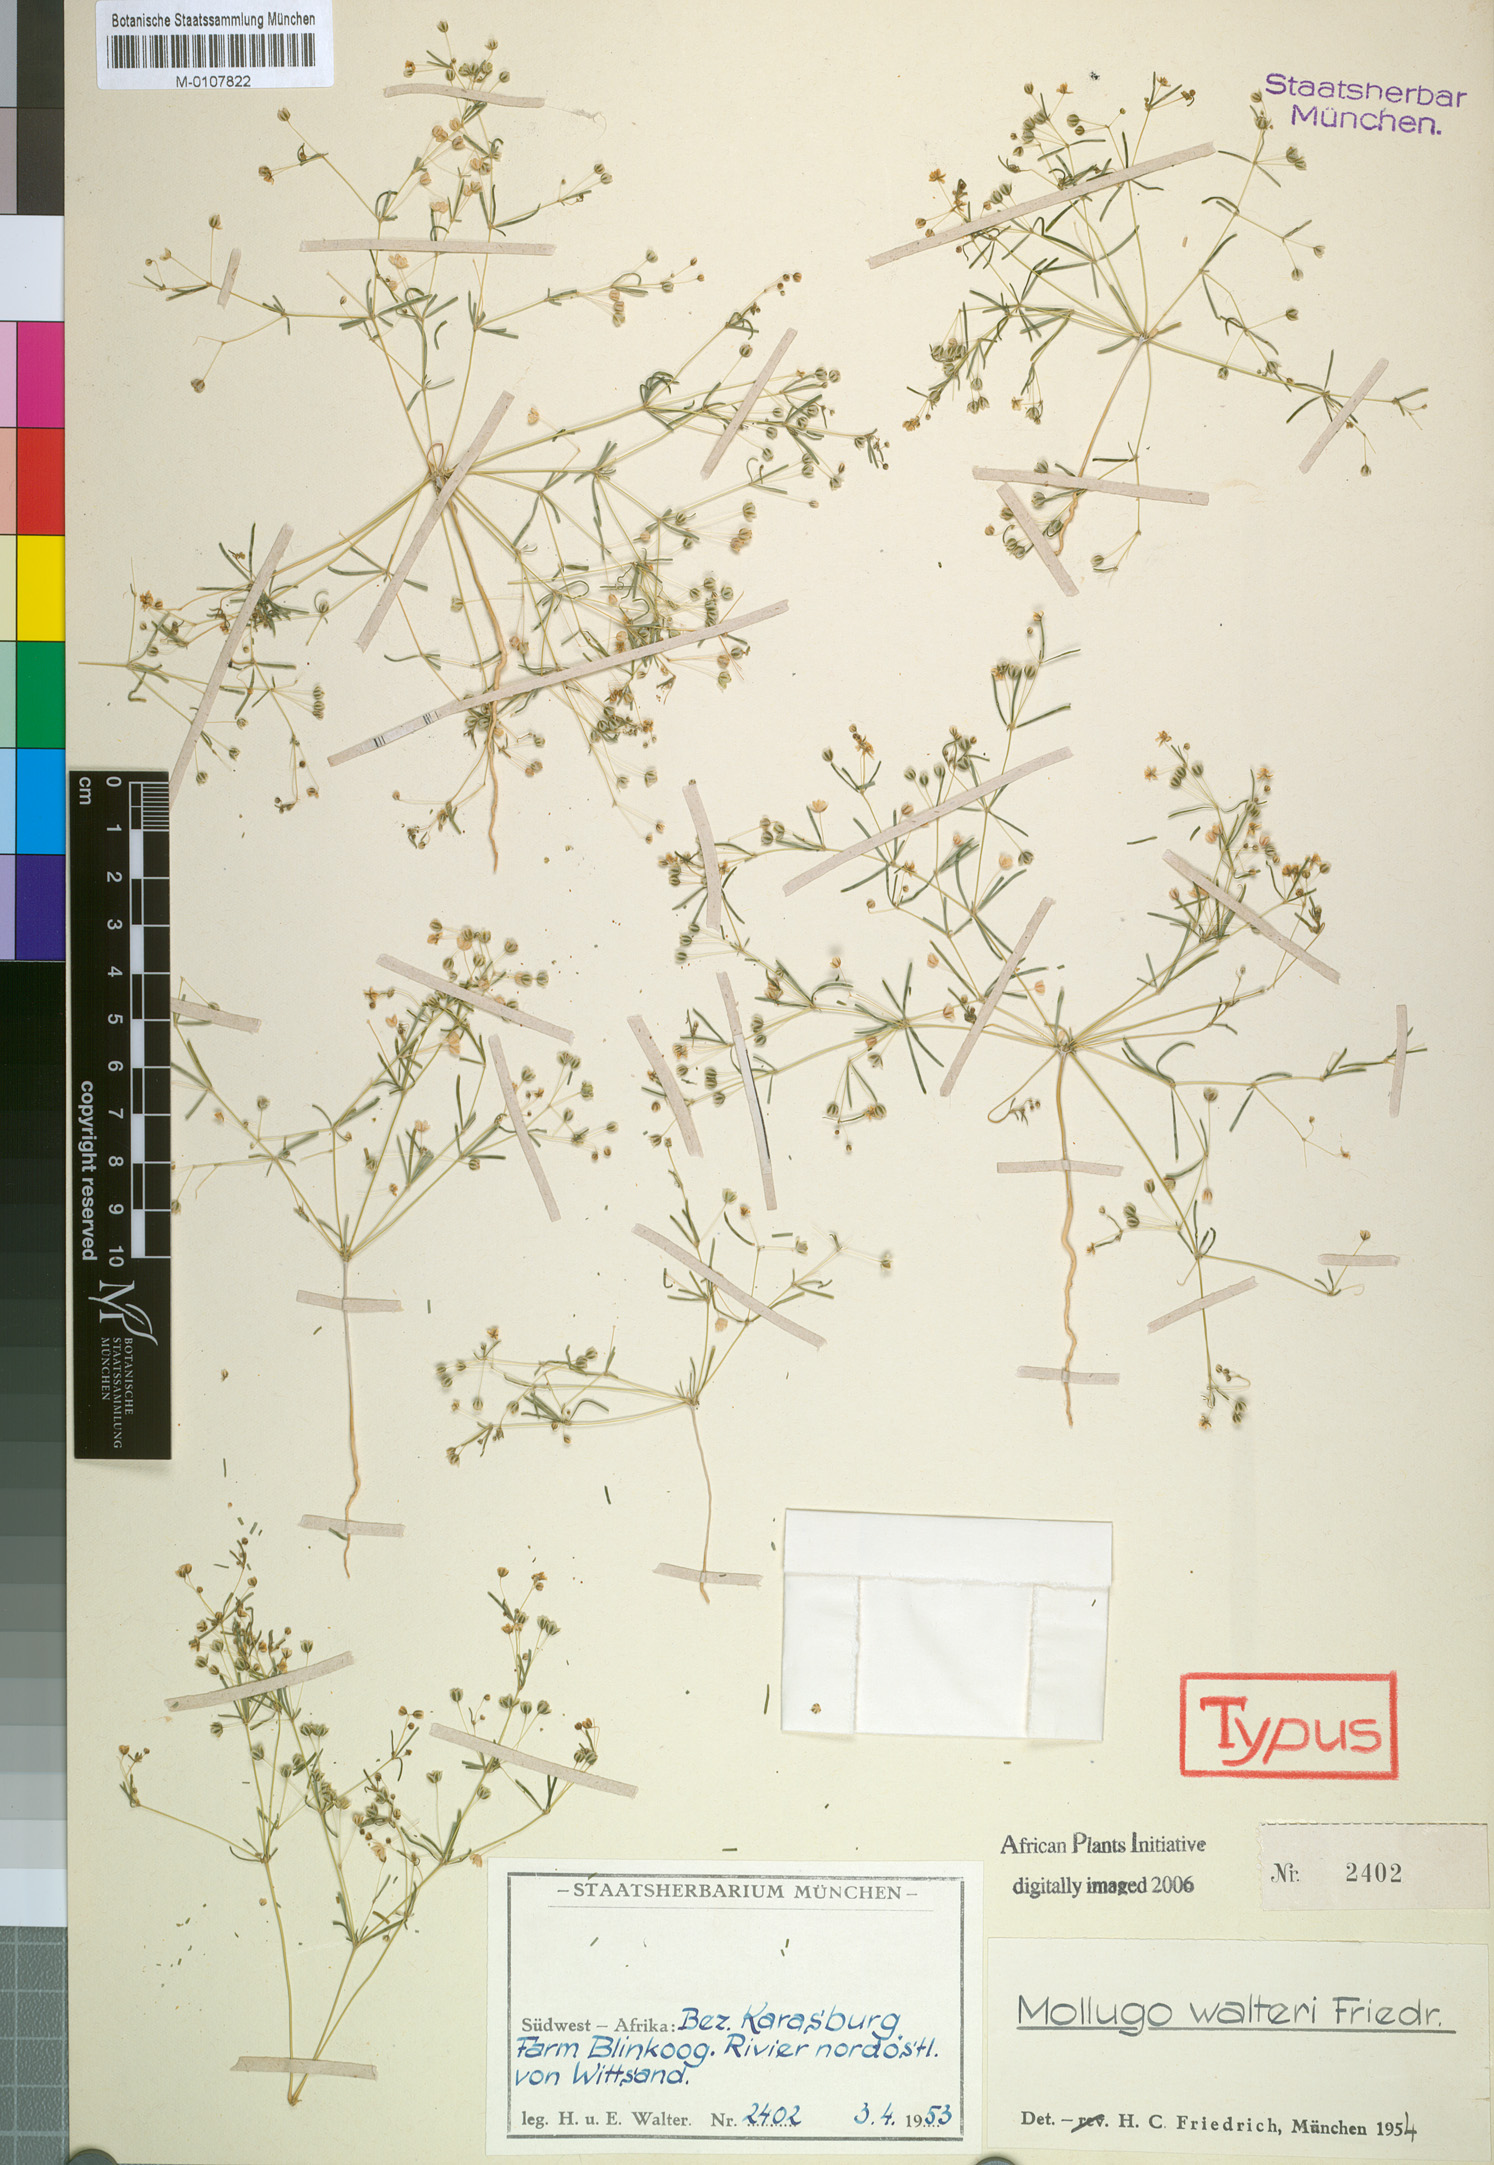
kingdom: Plantae
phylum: Tracheophyta
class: Magnoliopsida
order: Caryophyllales
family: Molluginaceae
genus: Hypertelis
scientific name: Hypertelis walteri
